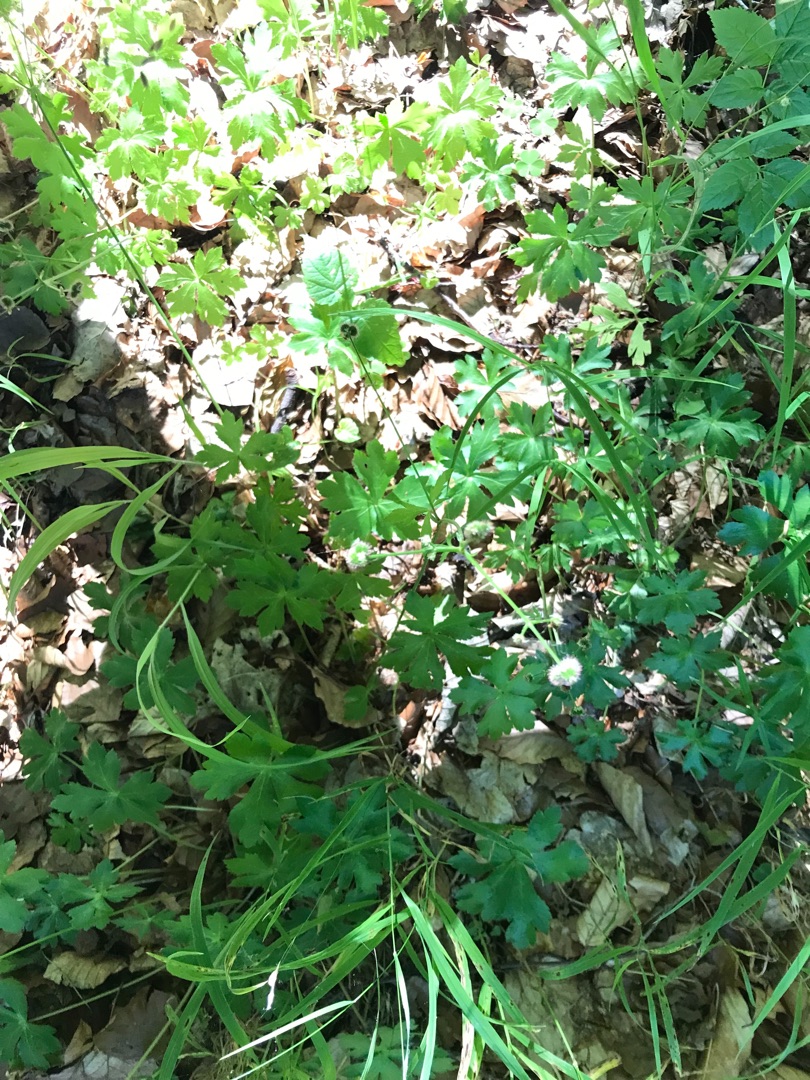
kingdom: Plantae
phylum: Tracheophyta
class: Magnoliopsida
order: Apiales
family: Apiaceae
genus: Sanicula
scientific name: Sanicula europaea
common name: Sanikel
